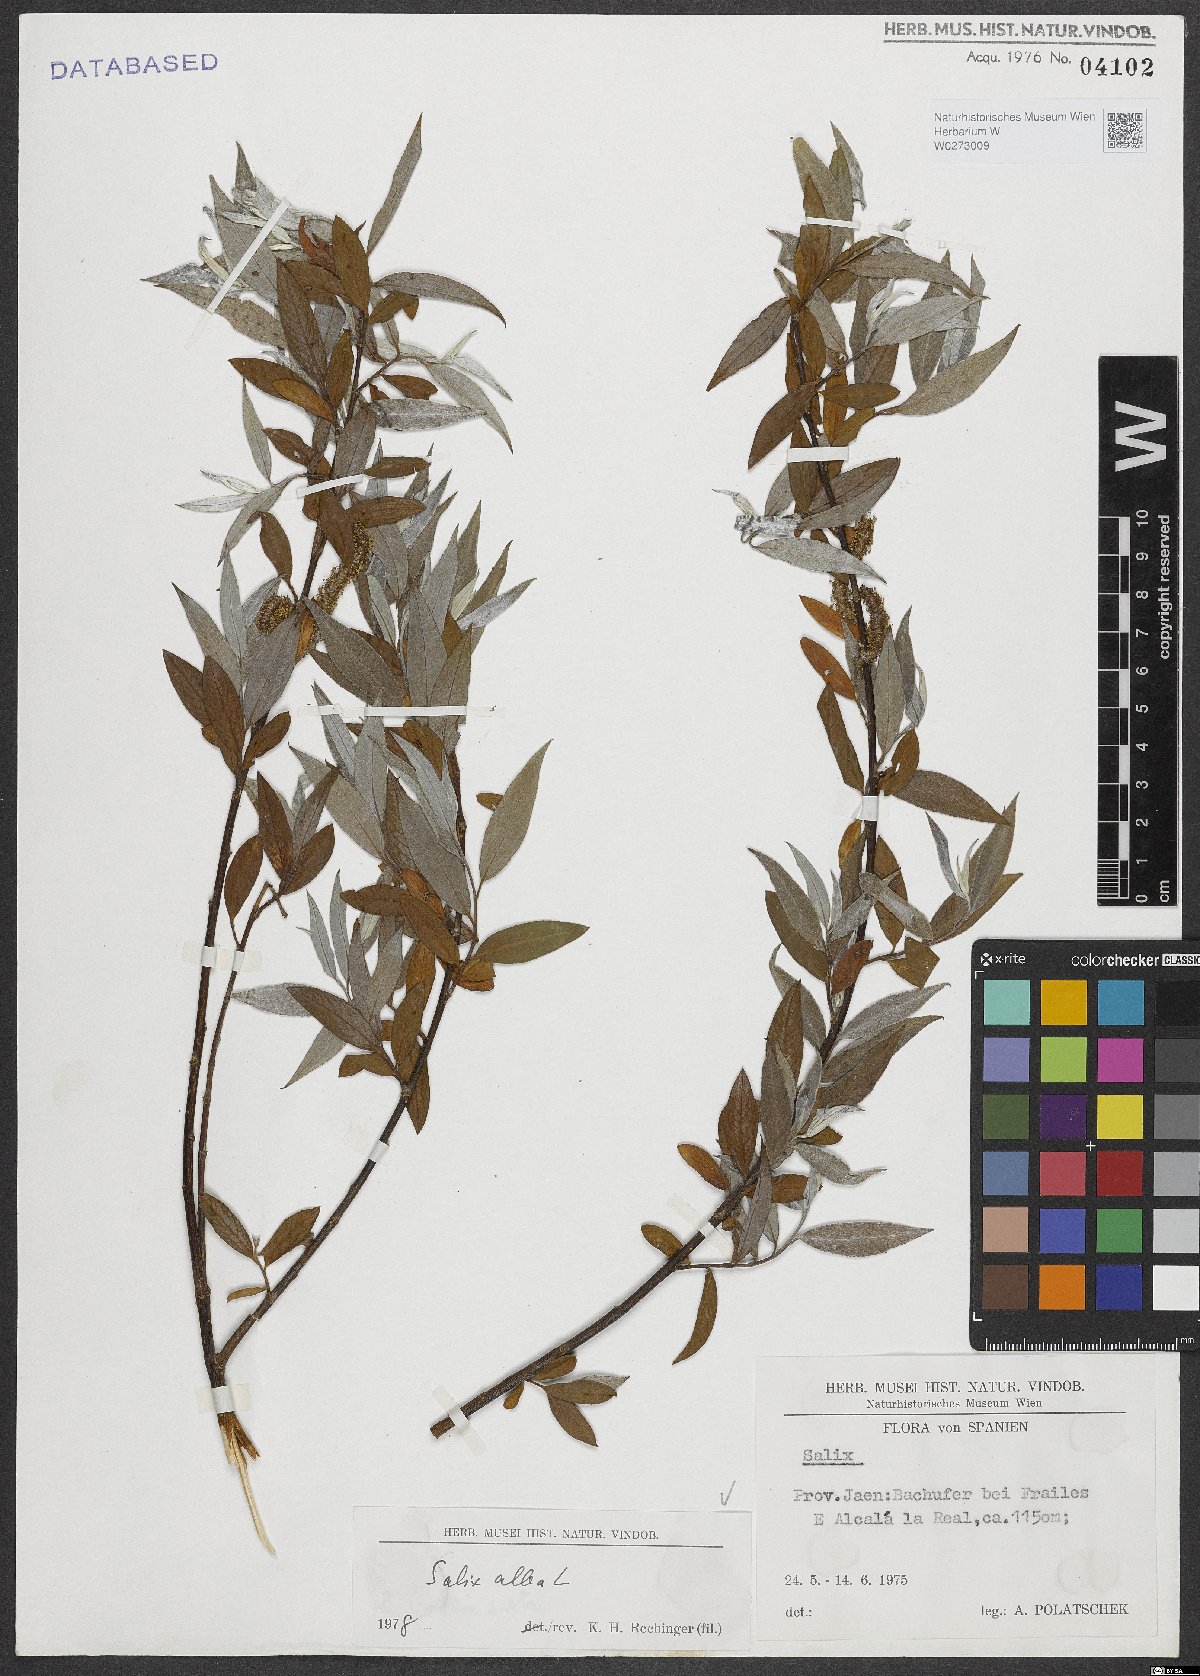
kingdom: Plantae
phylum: Tracheophyta
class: Magnoliopsida
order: Malpighiales
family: Salicaceae
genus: Salix
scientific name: Salix alba
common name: White willow
